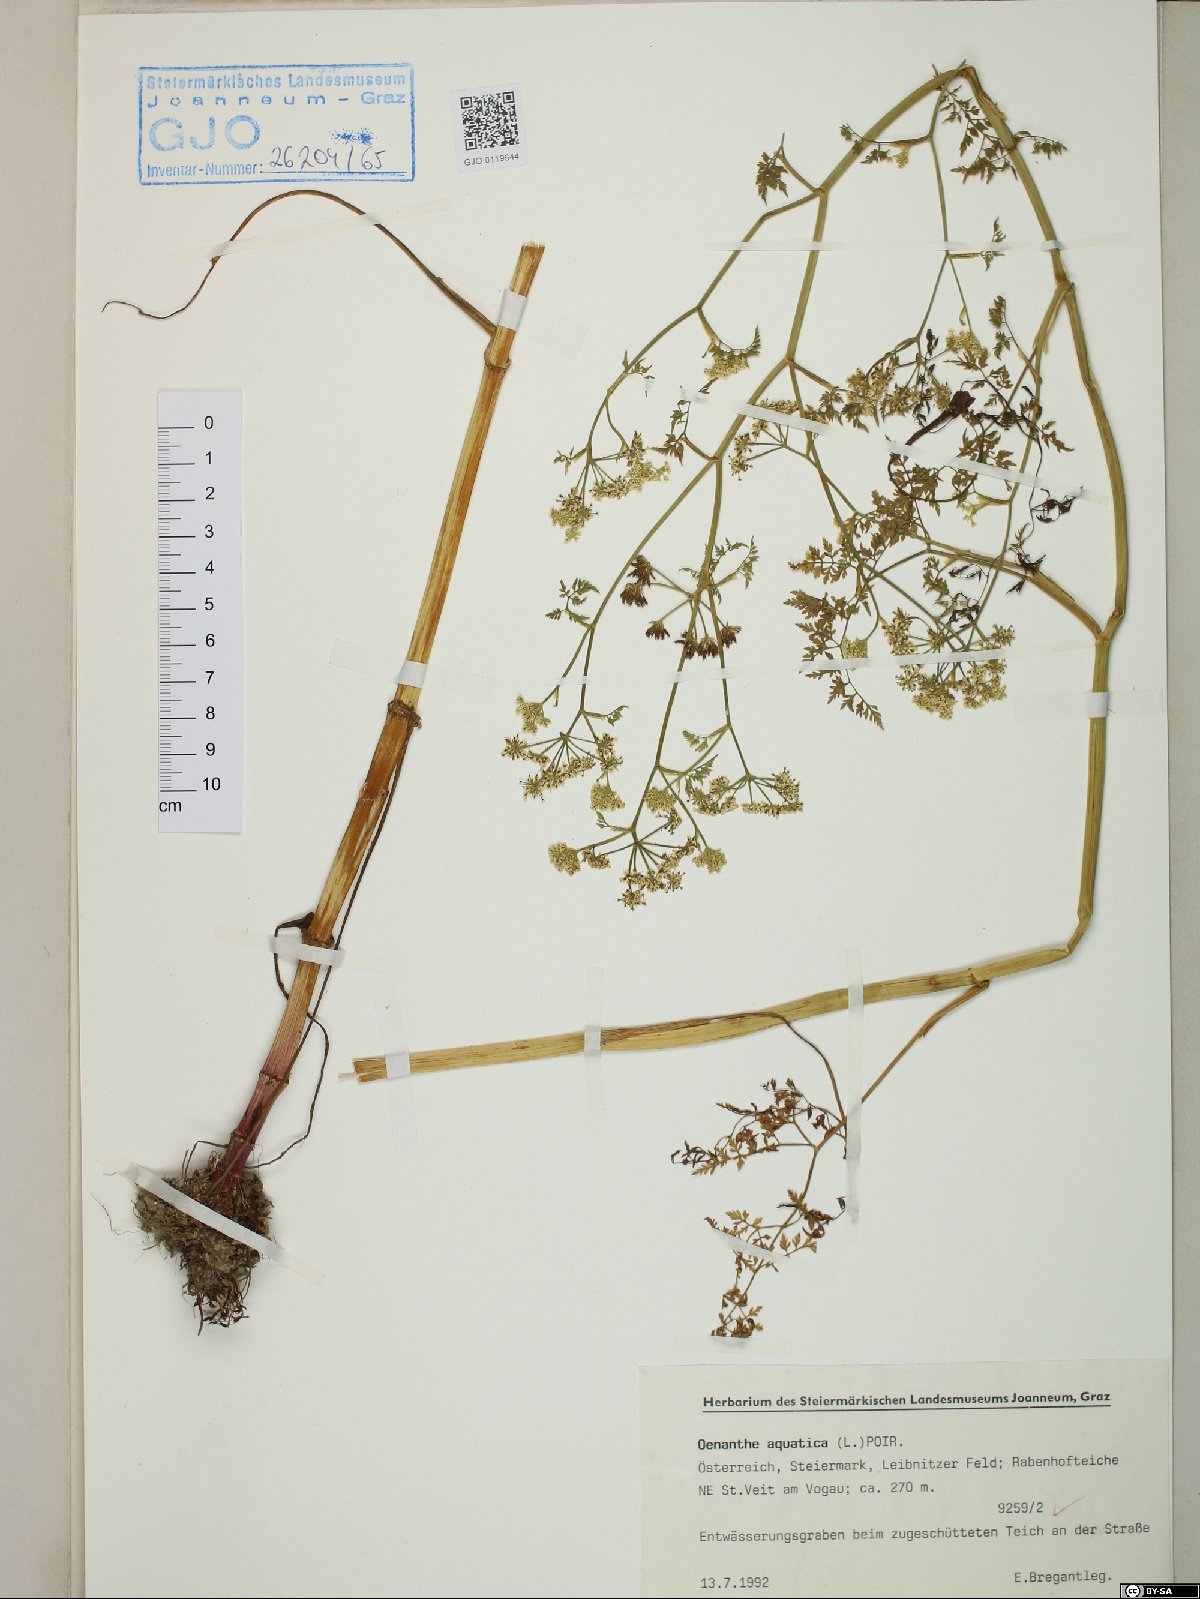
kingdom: Plantae
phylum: Tracheophyta
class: Magnoliopsida
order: Apiales
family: Apiaceae
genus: Oenanthe
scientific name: Oenanthe aquatica
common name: Fine-leaved water-dropwort
